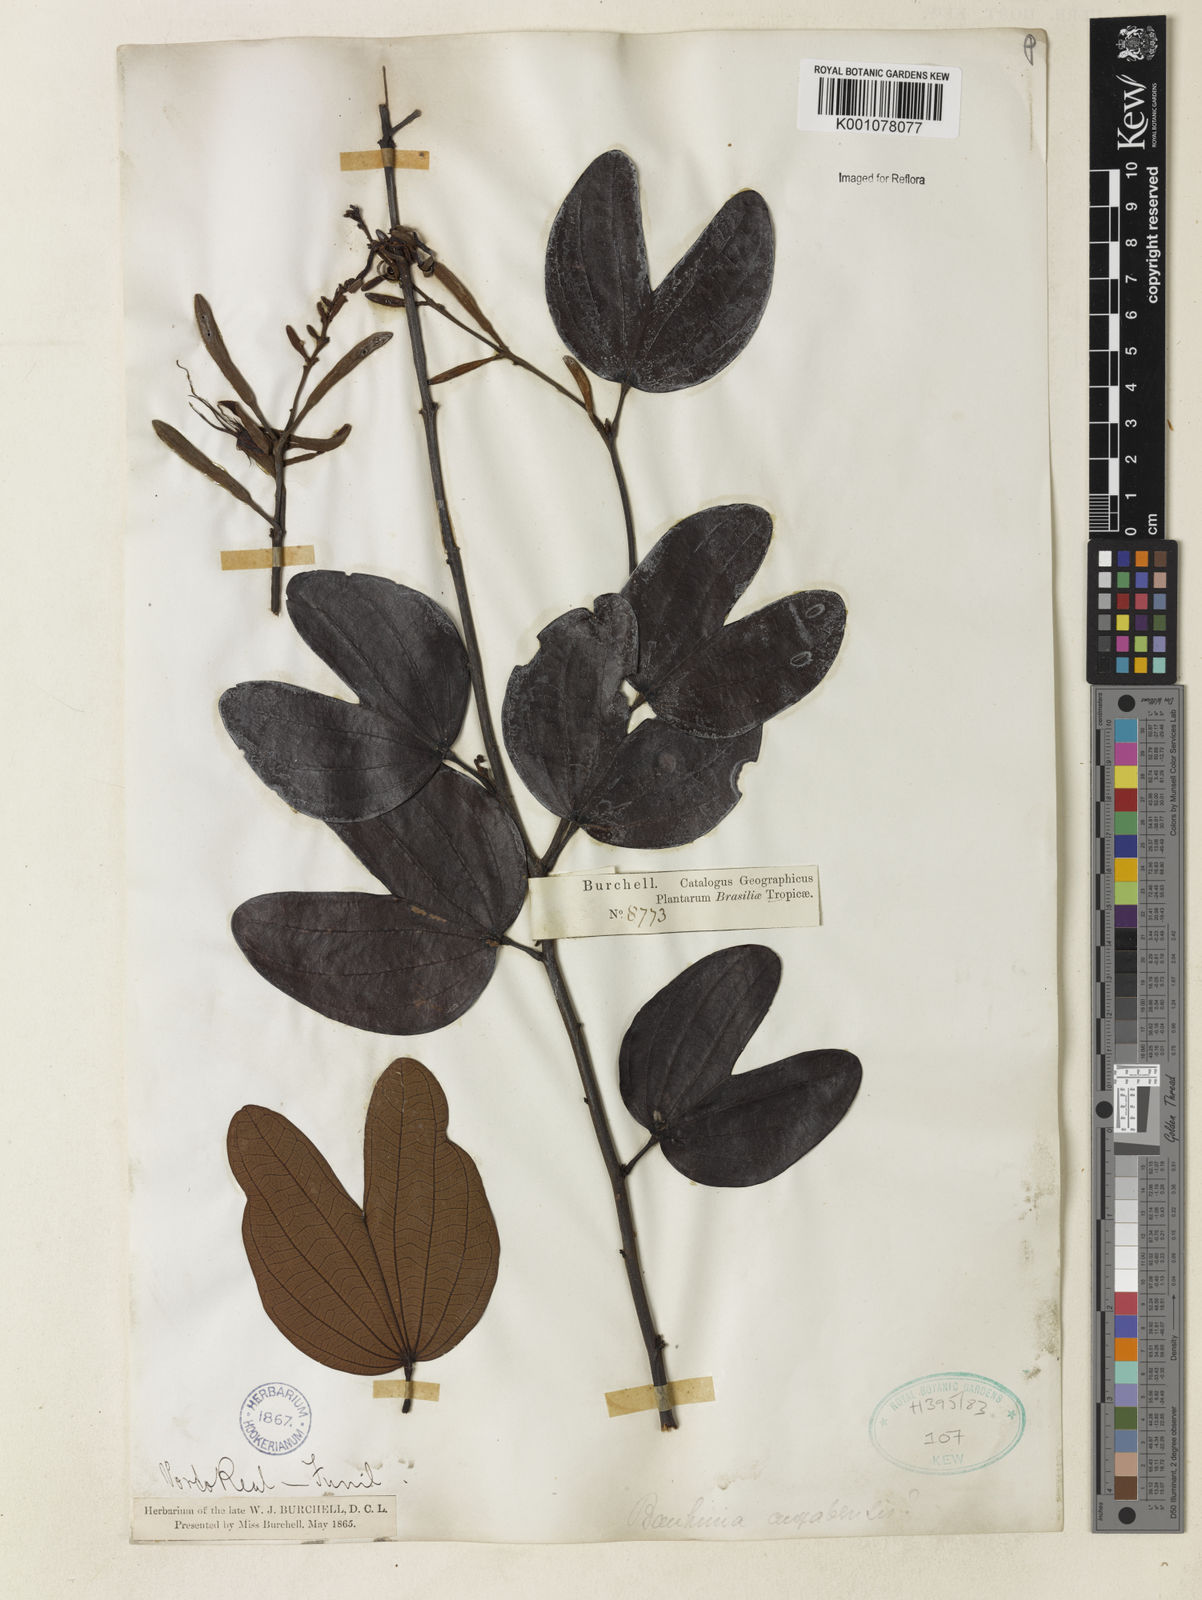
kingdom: Plantae
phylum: Tracheophyta
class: Magnoliopsida
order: Fabales
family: Fabaceae
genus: Bauhinia
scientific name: Bauhinia ungulata
